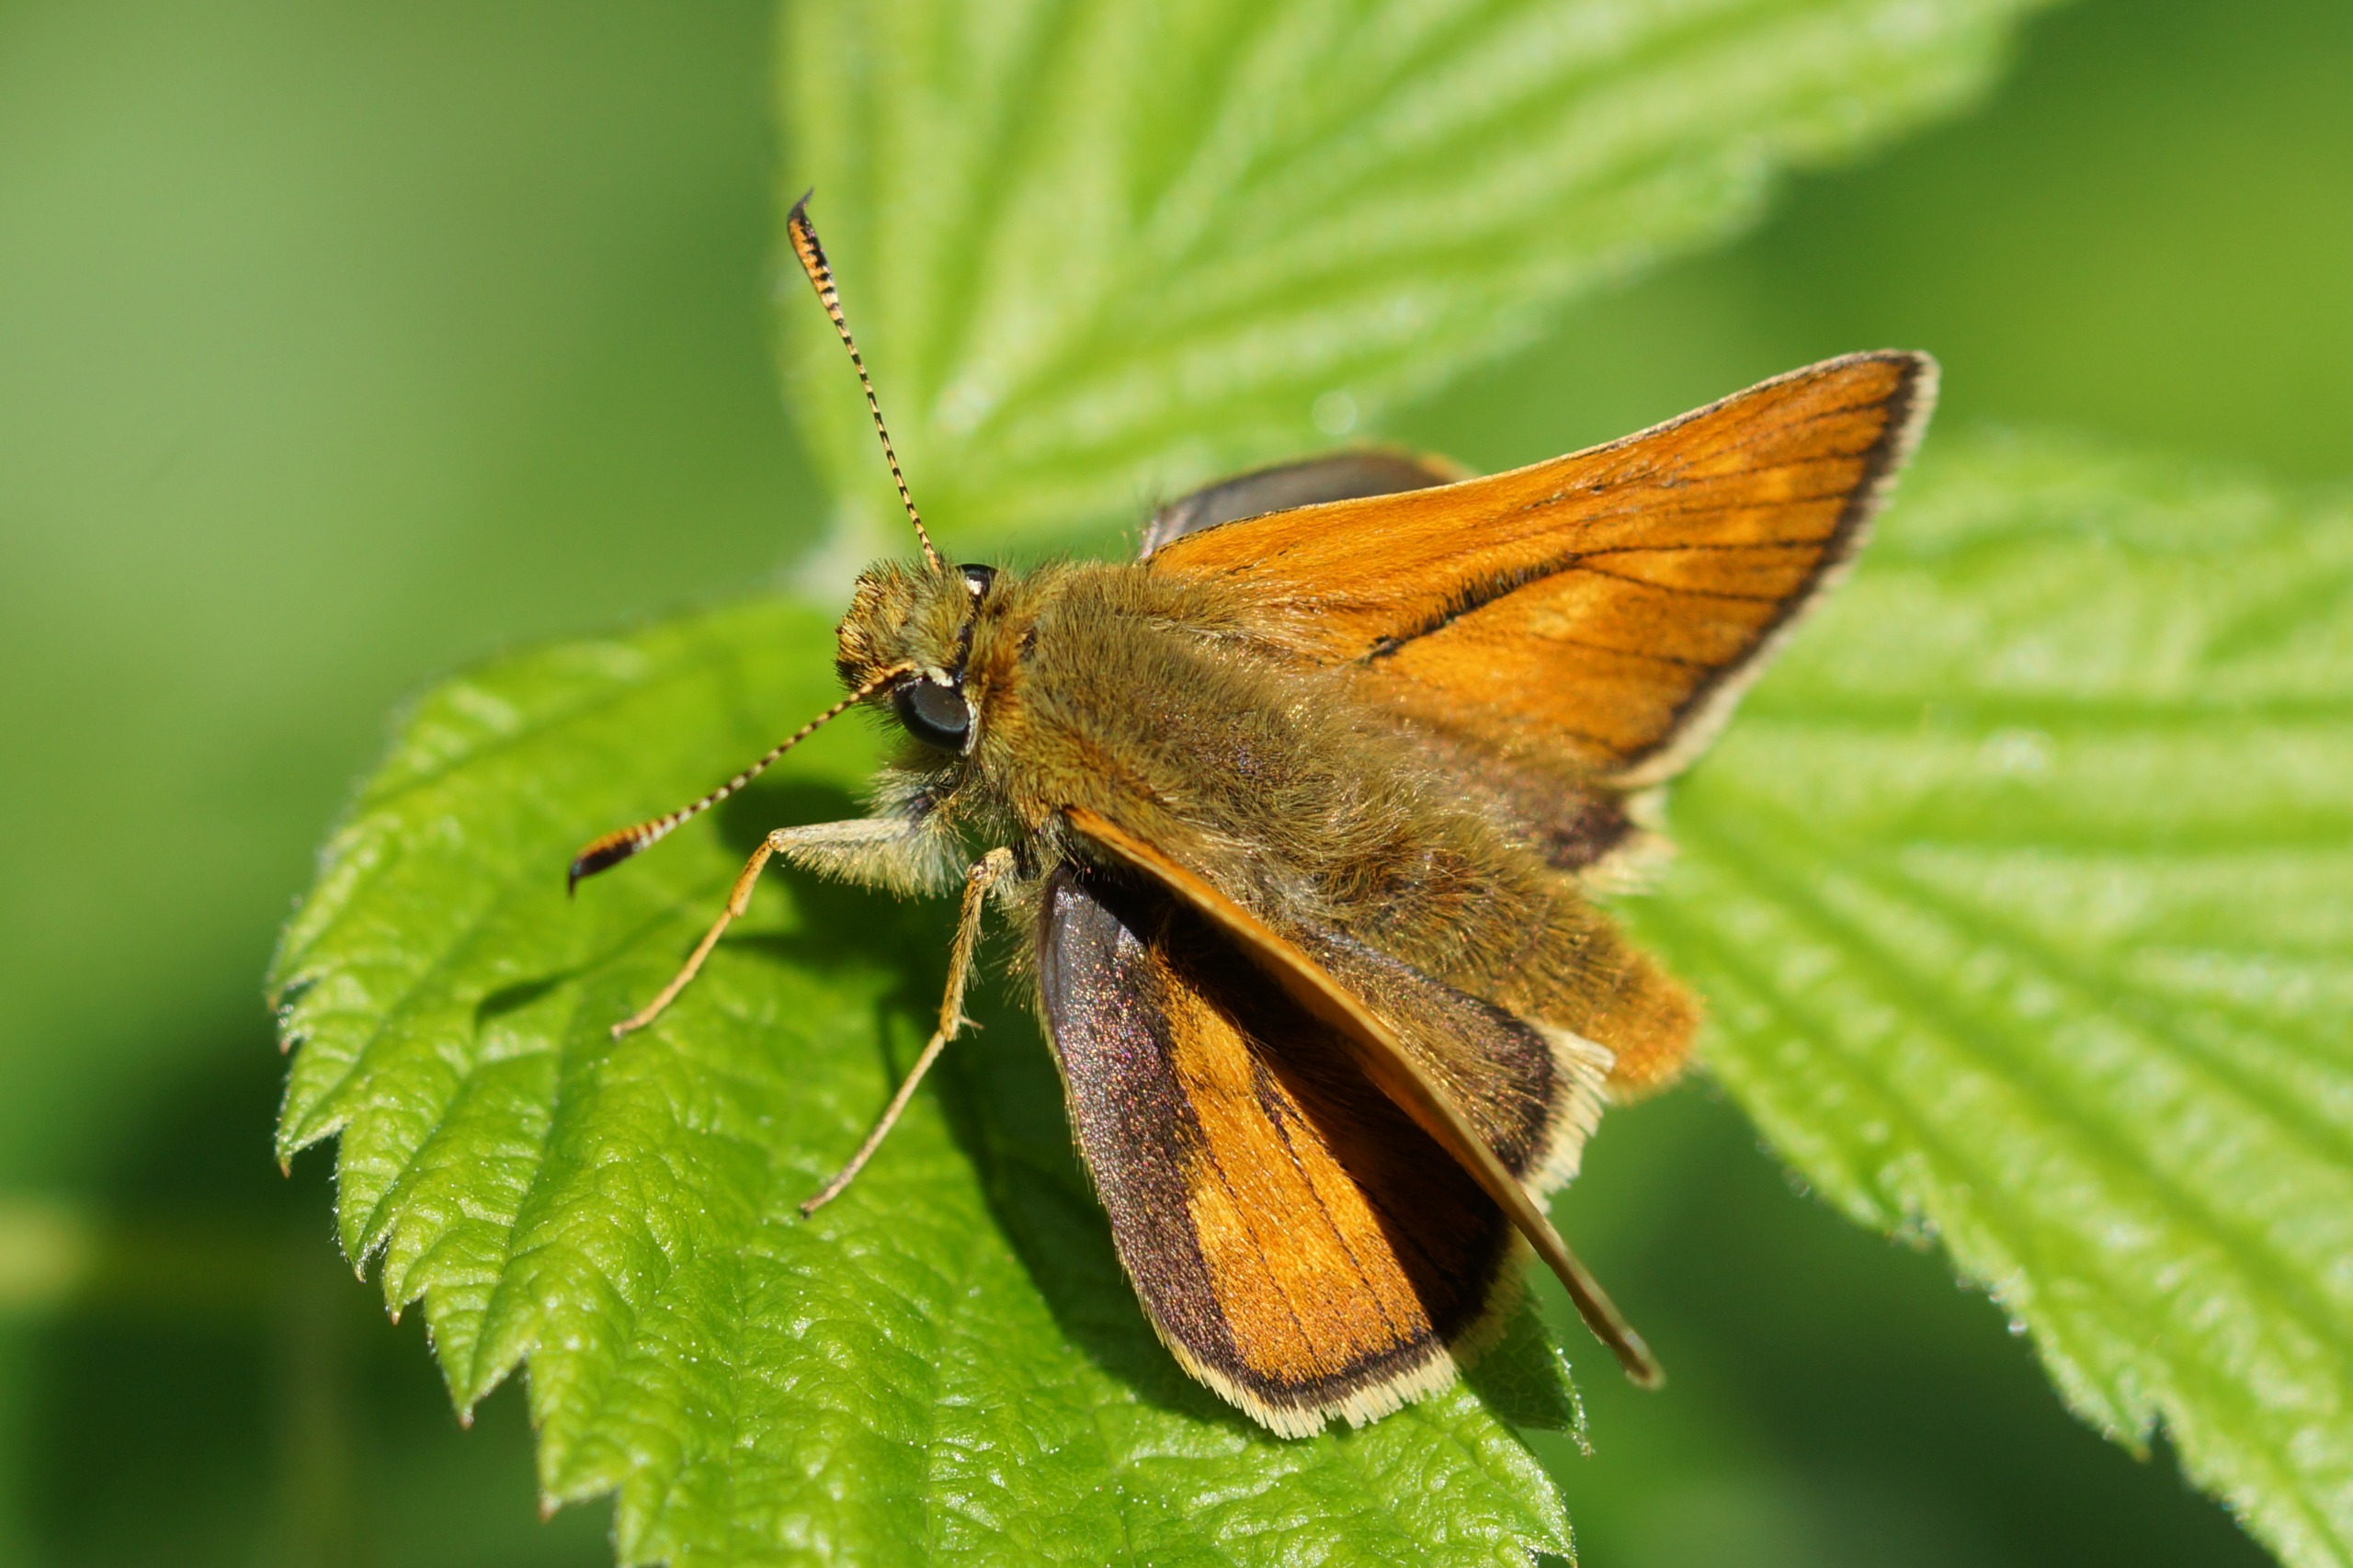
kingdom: Animalia
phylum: Arthropoda
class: Insecta
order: Lepidoptera
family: Hesperiidae
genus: Ochlodes
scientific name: Ochlodes venata
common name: Stor bredpande
